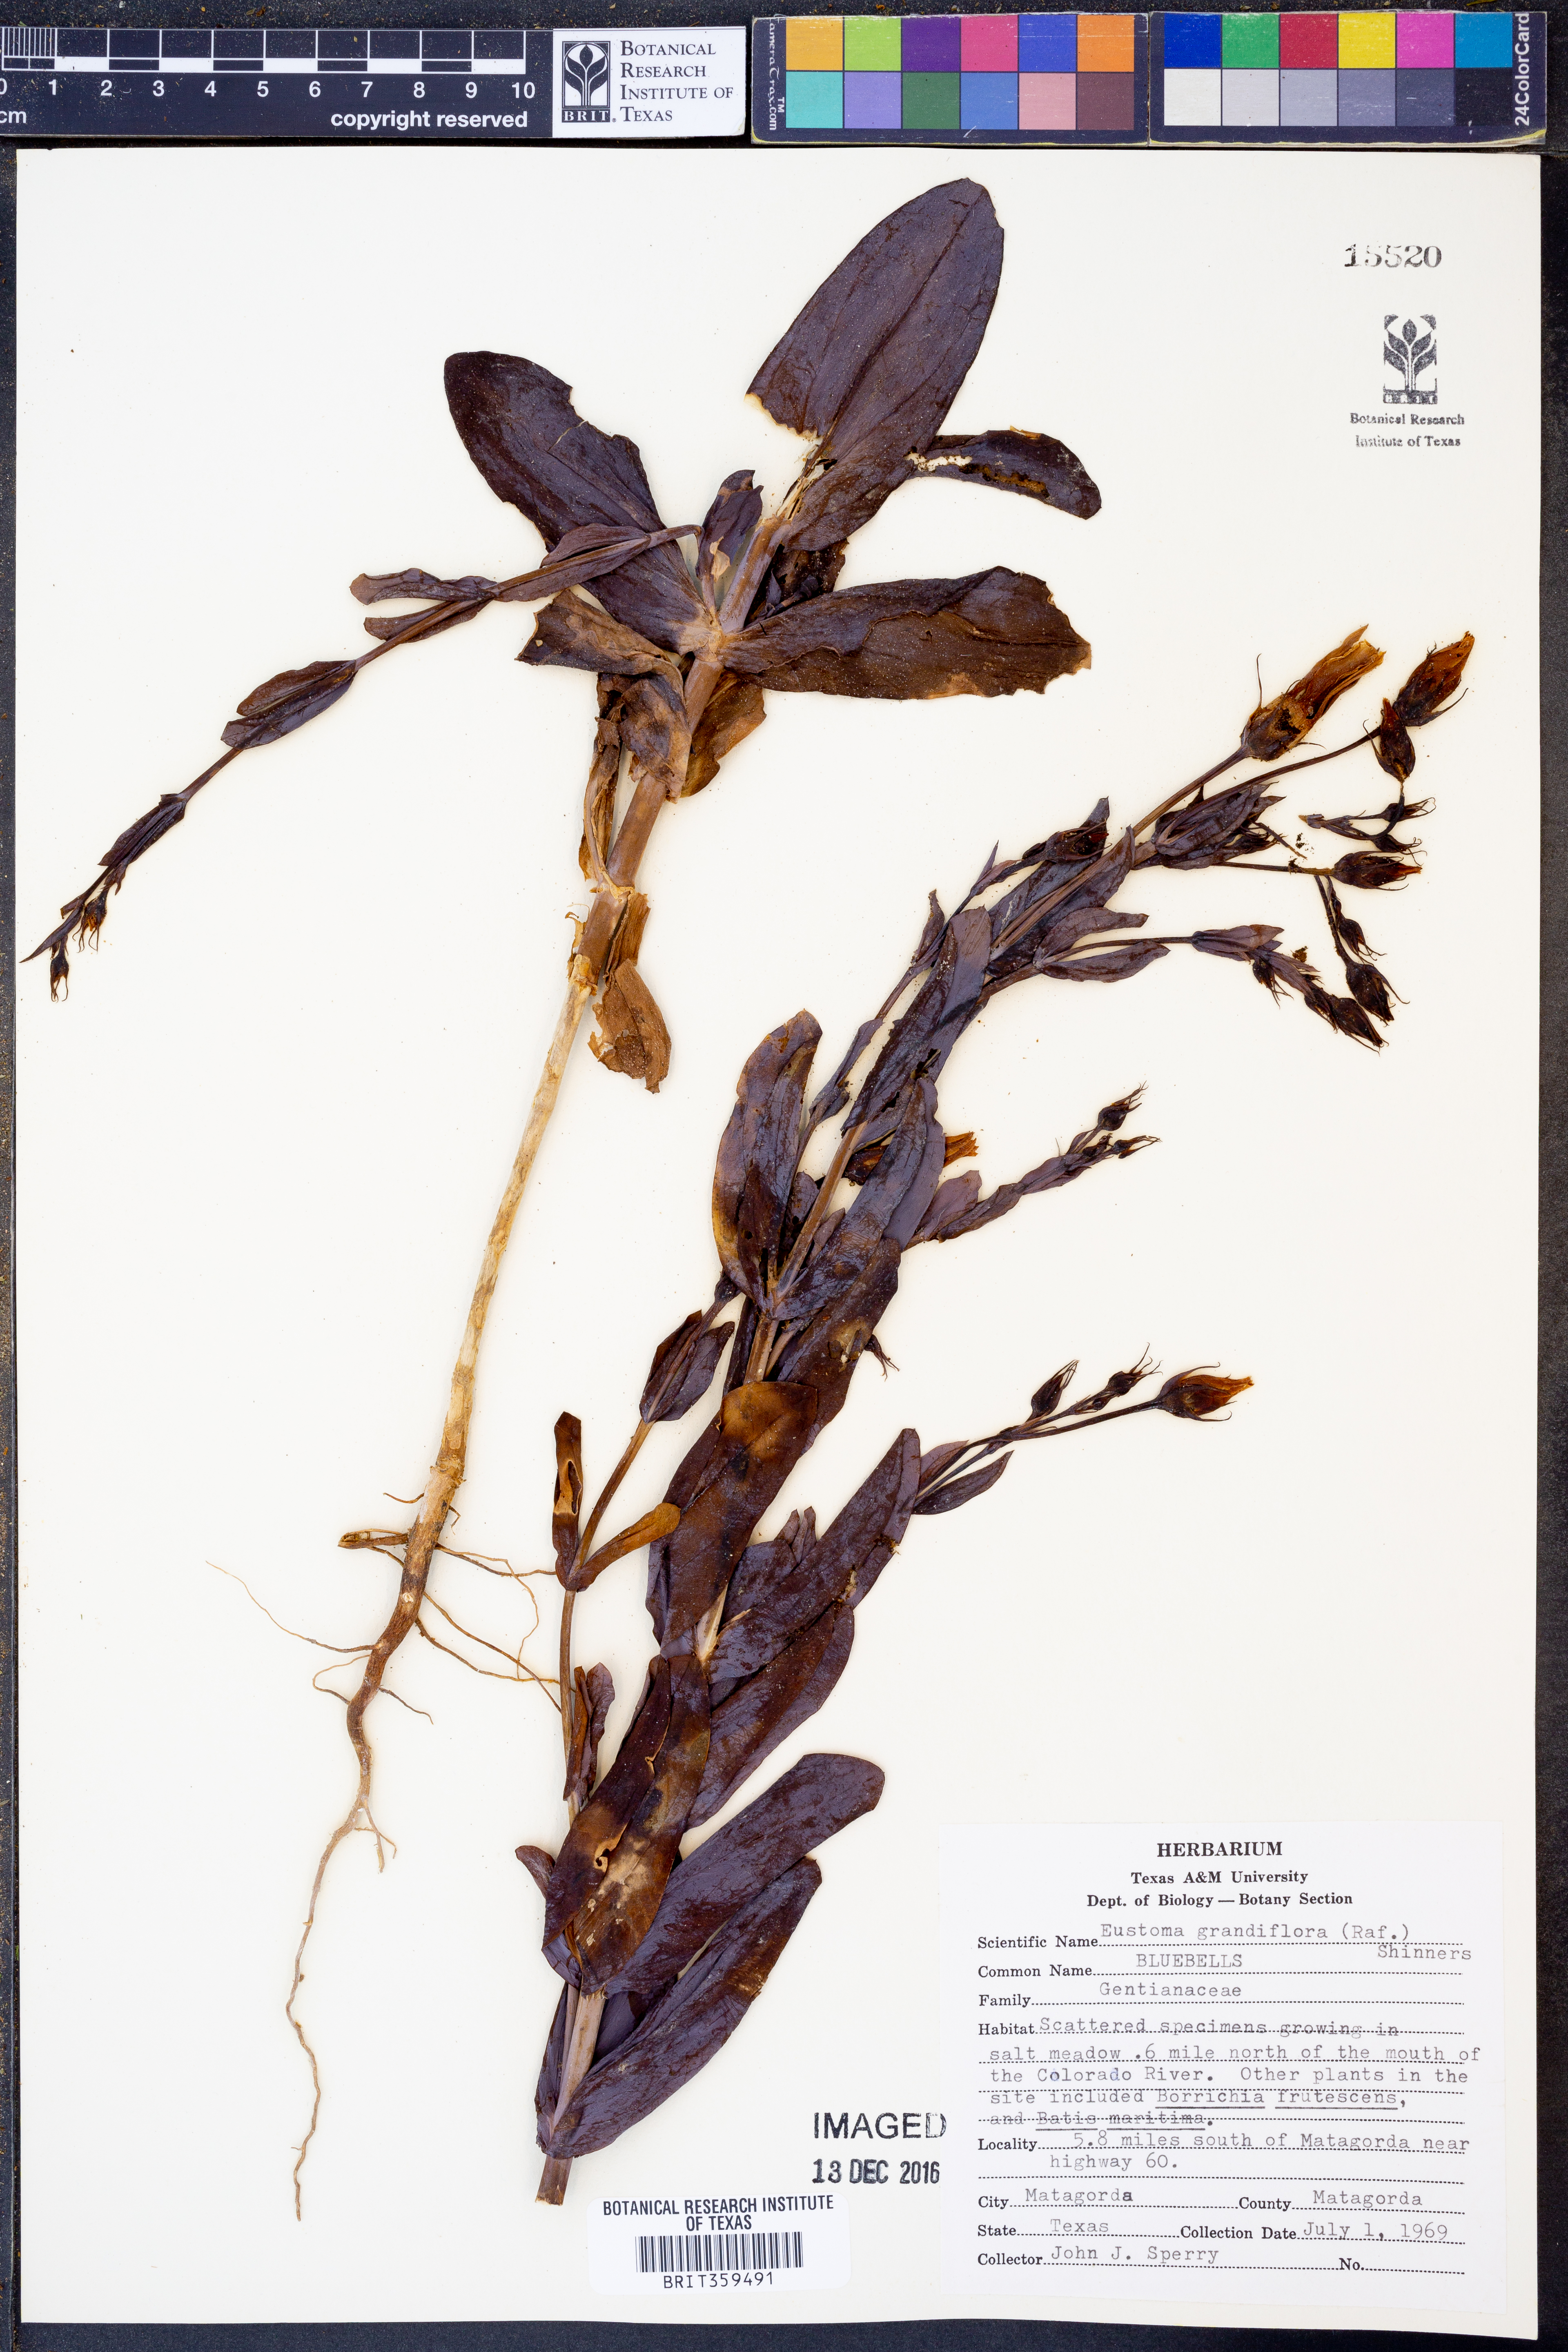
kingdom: Plantae
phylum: Tracheophyta
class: Magnoliopsida
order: Gentianales
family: Gentianaceae
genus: Eustoma
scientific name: Eustoma russellianum
